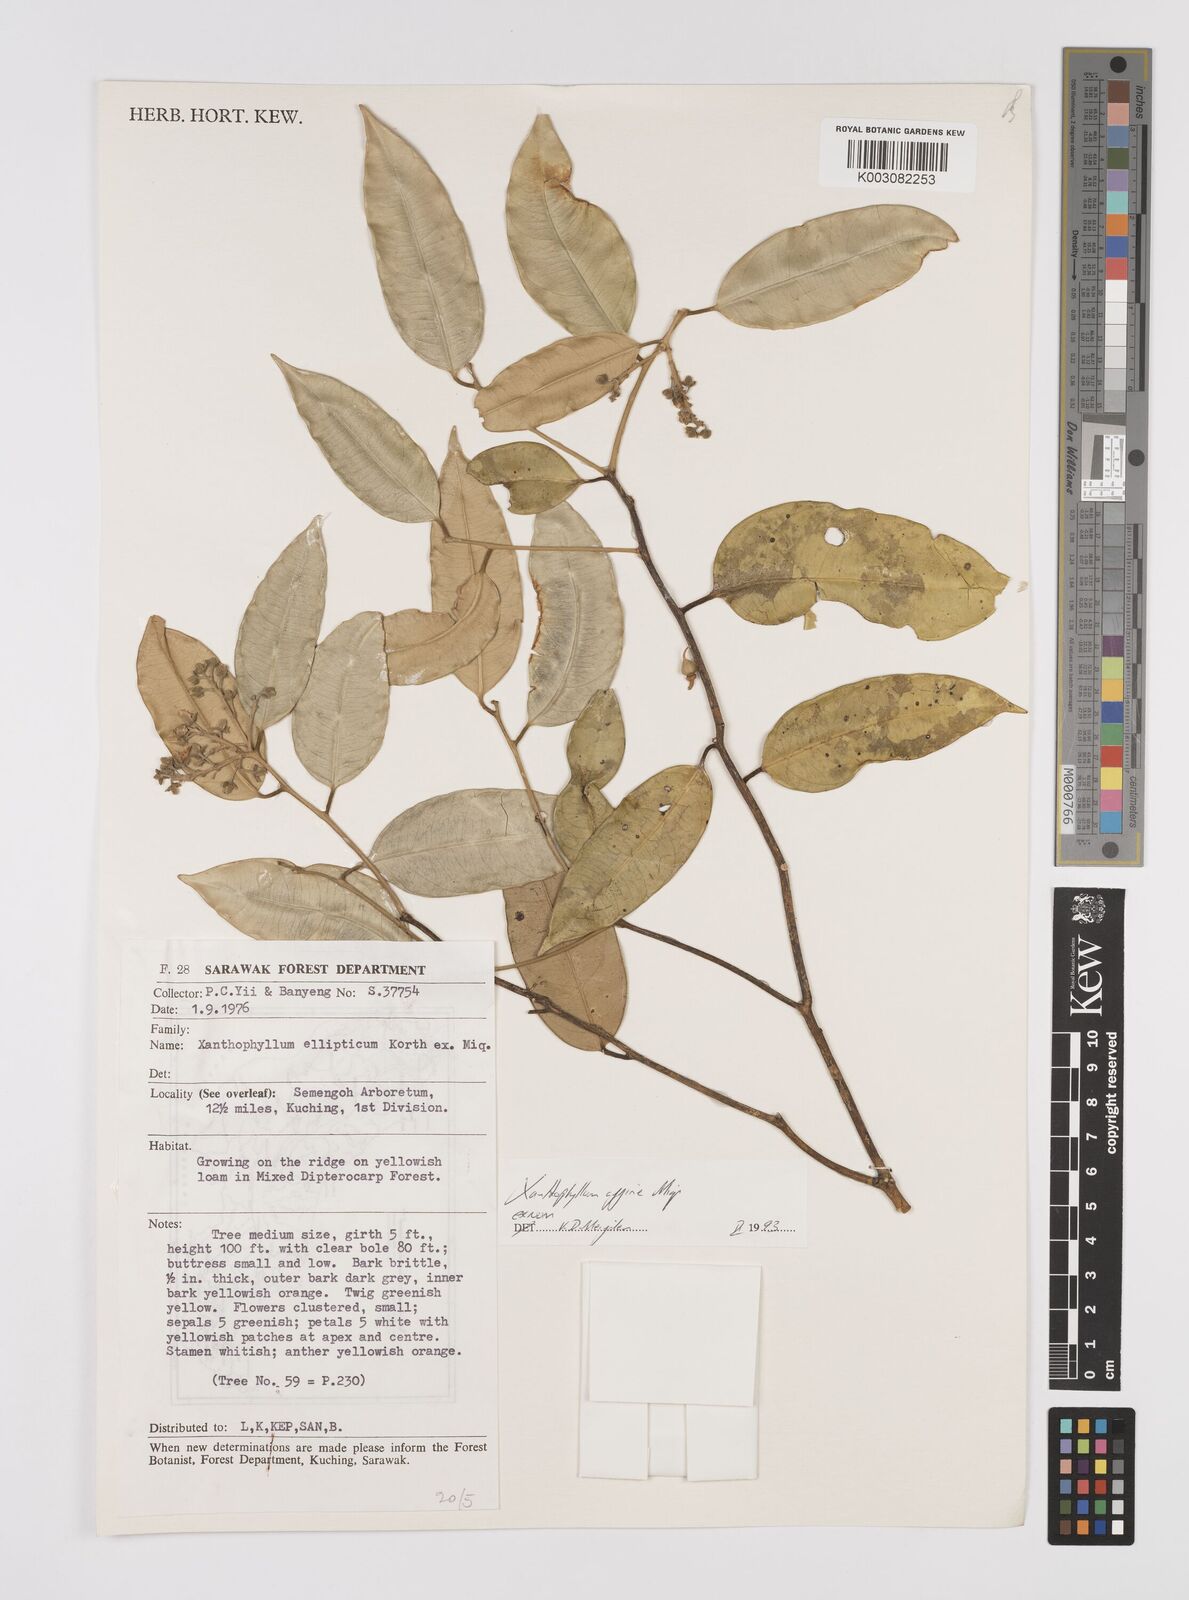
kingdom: Plantae
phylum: Tracheophyta
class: Magnoliopsida
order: Fabales
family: Polygalaceae
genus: Xanthophyllum
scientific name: Xanthophyllum flavescens
